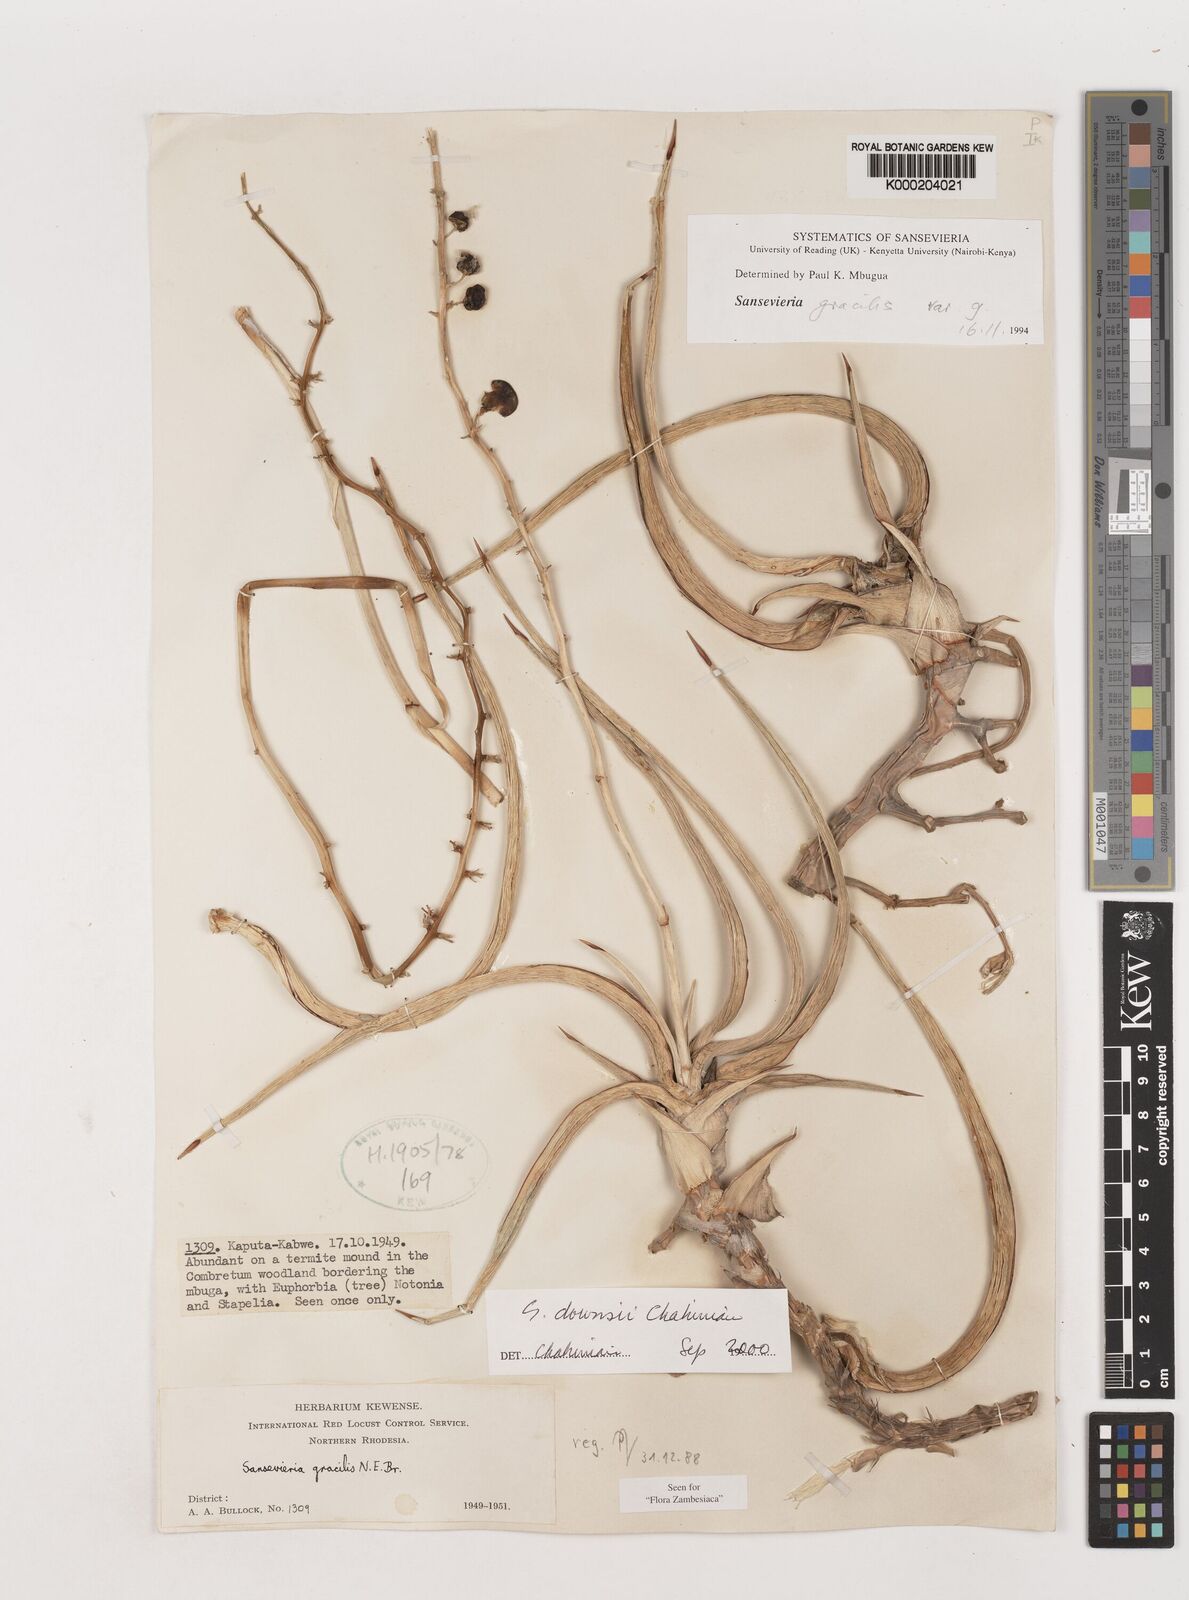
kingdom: Plantae
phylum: Tracheophyta
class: Liliopsida
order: Asparagales
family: Asparagaceae
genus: Dracaena
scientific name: Dracaena downsii
